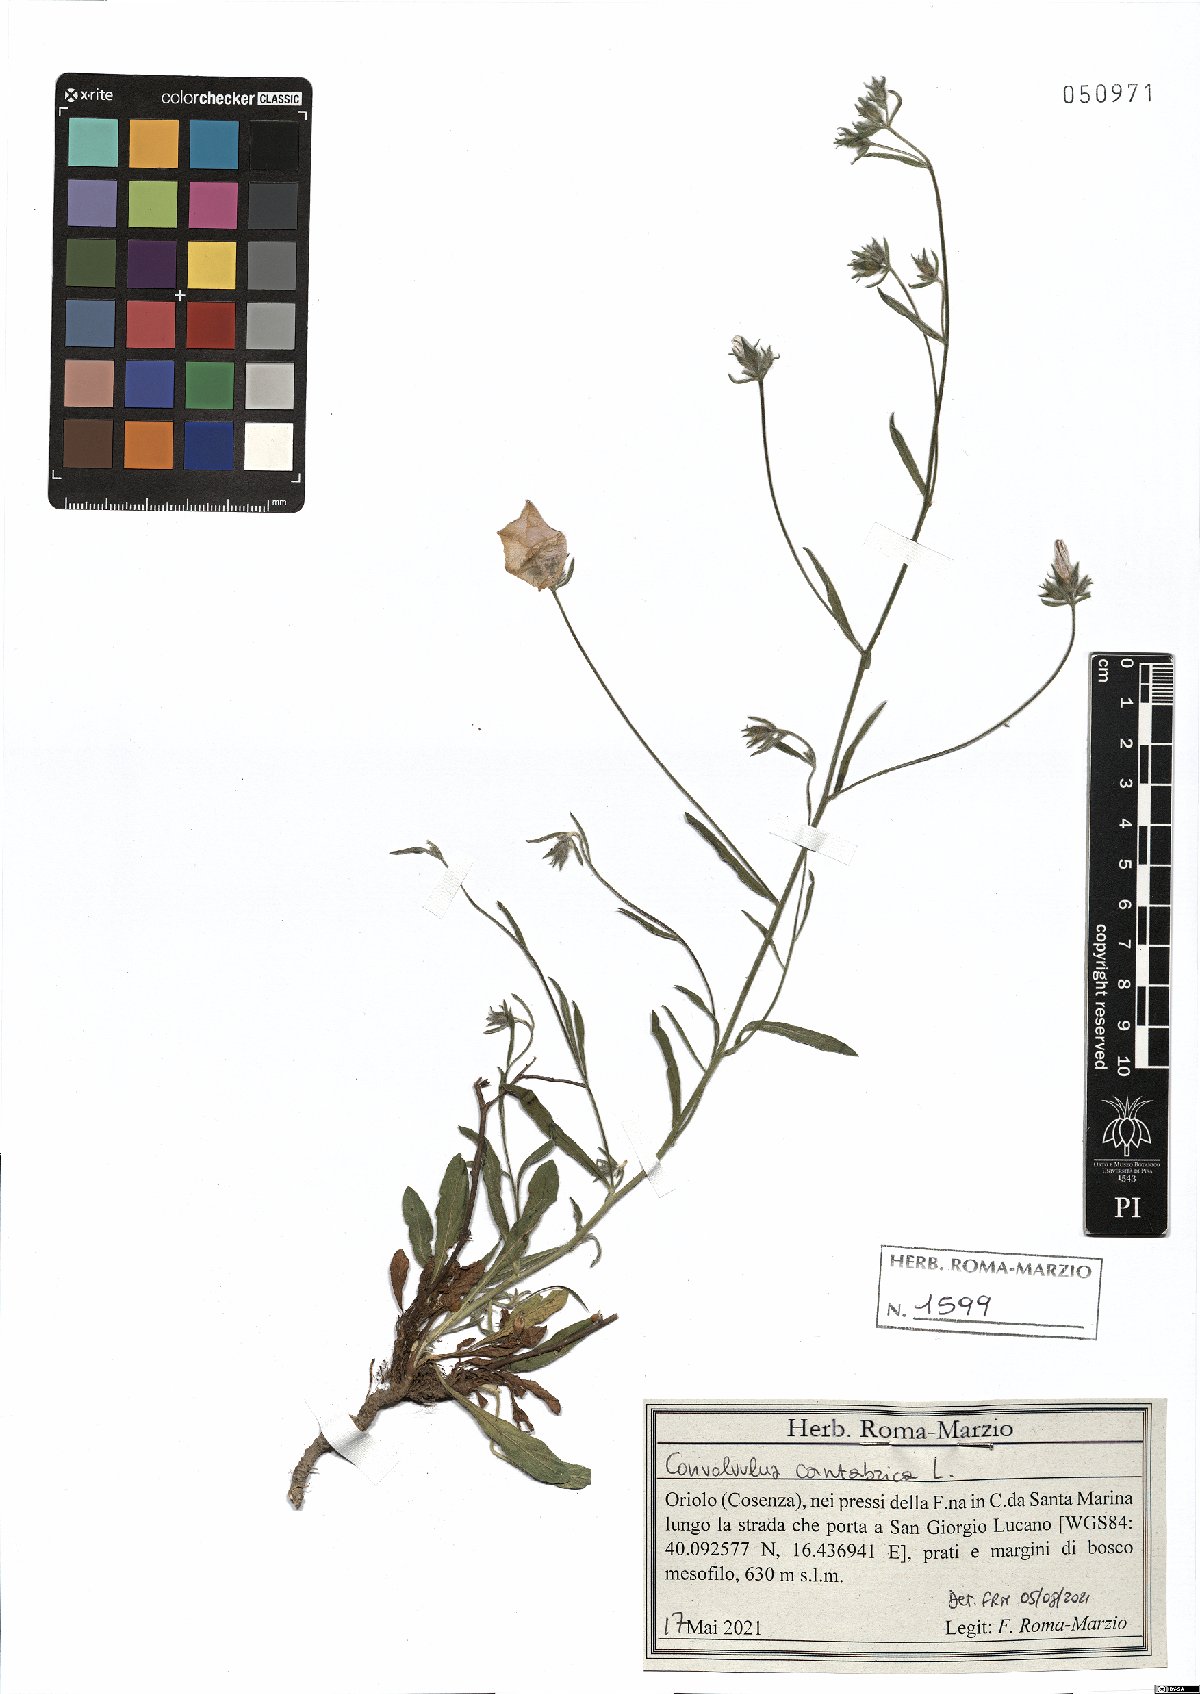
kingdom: Plantae
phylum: Tracheophyta
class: Magnoliopsida
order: Solanales
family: Convolvulaceae
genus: Convolvulus
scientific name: Convolvulus cantabrica
